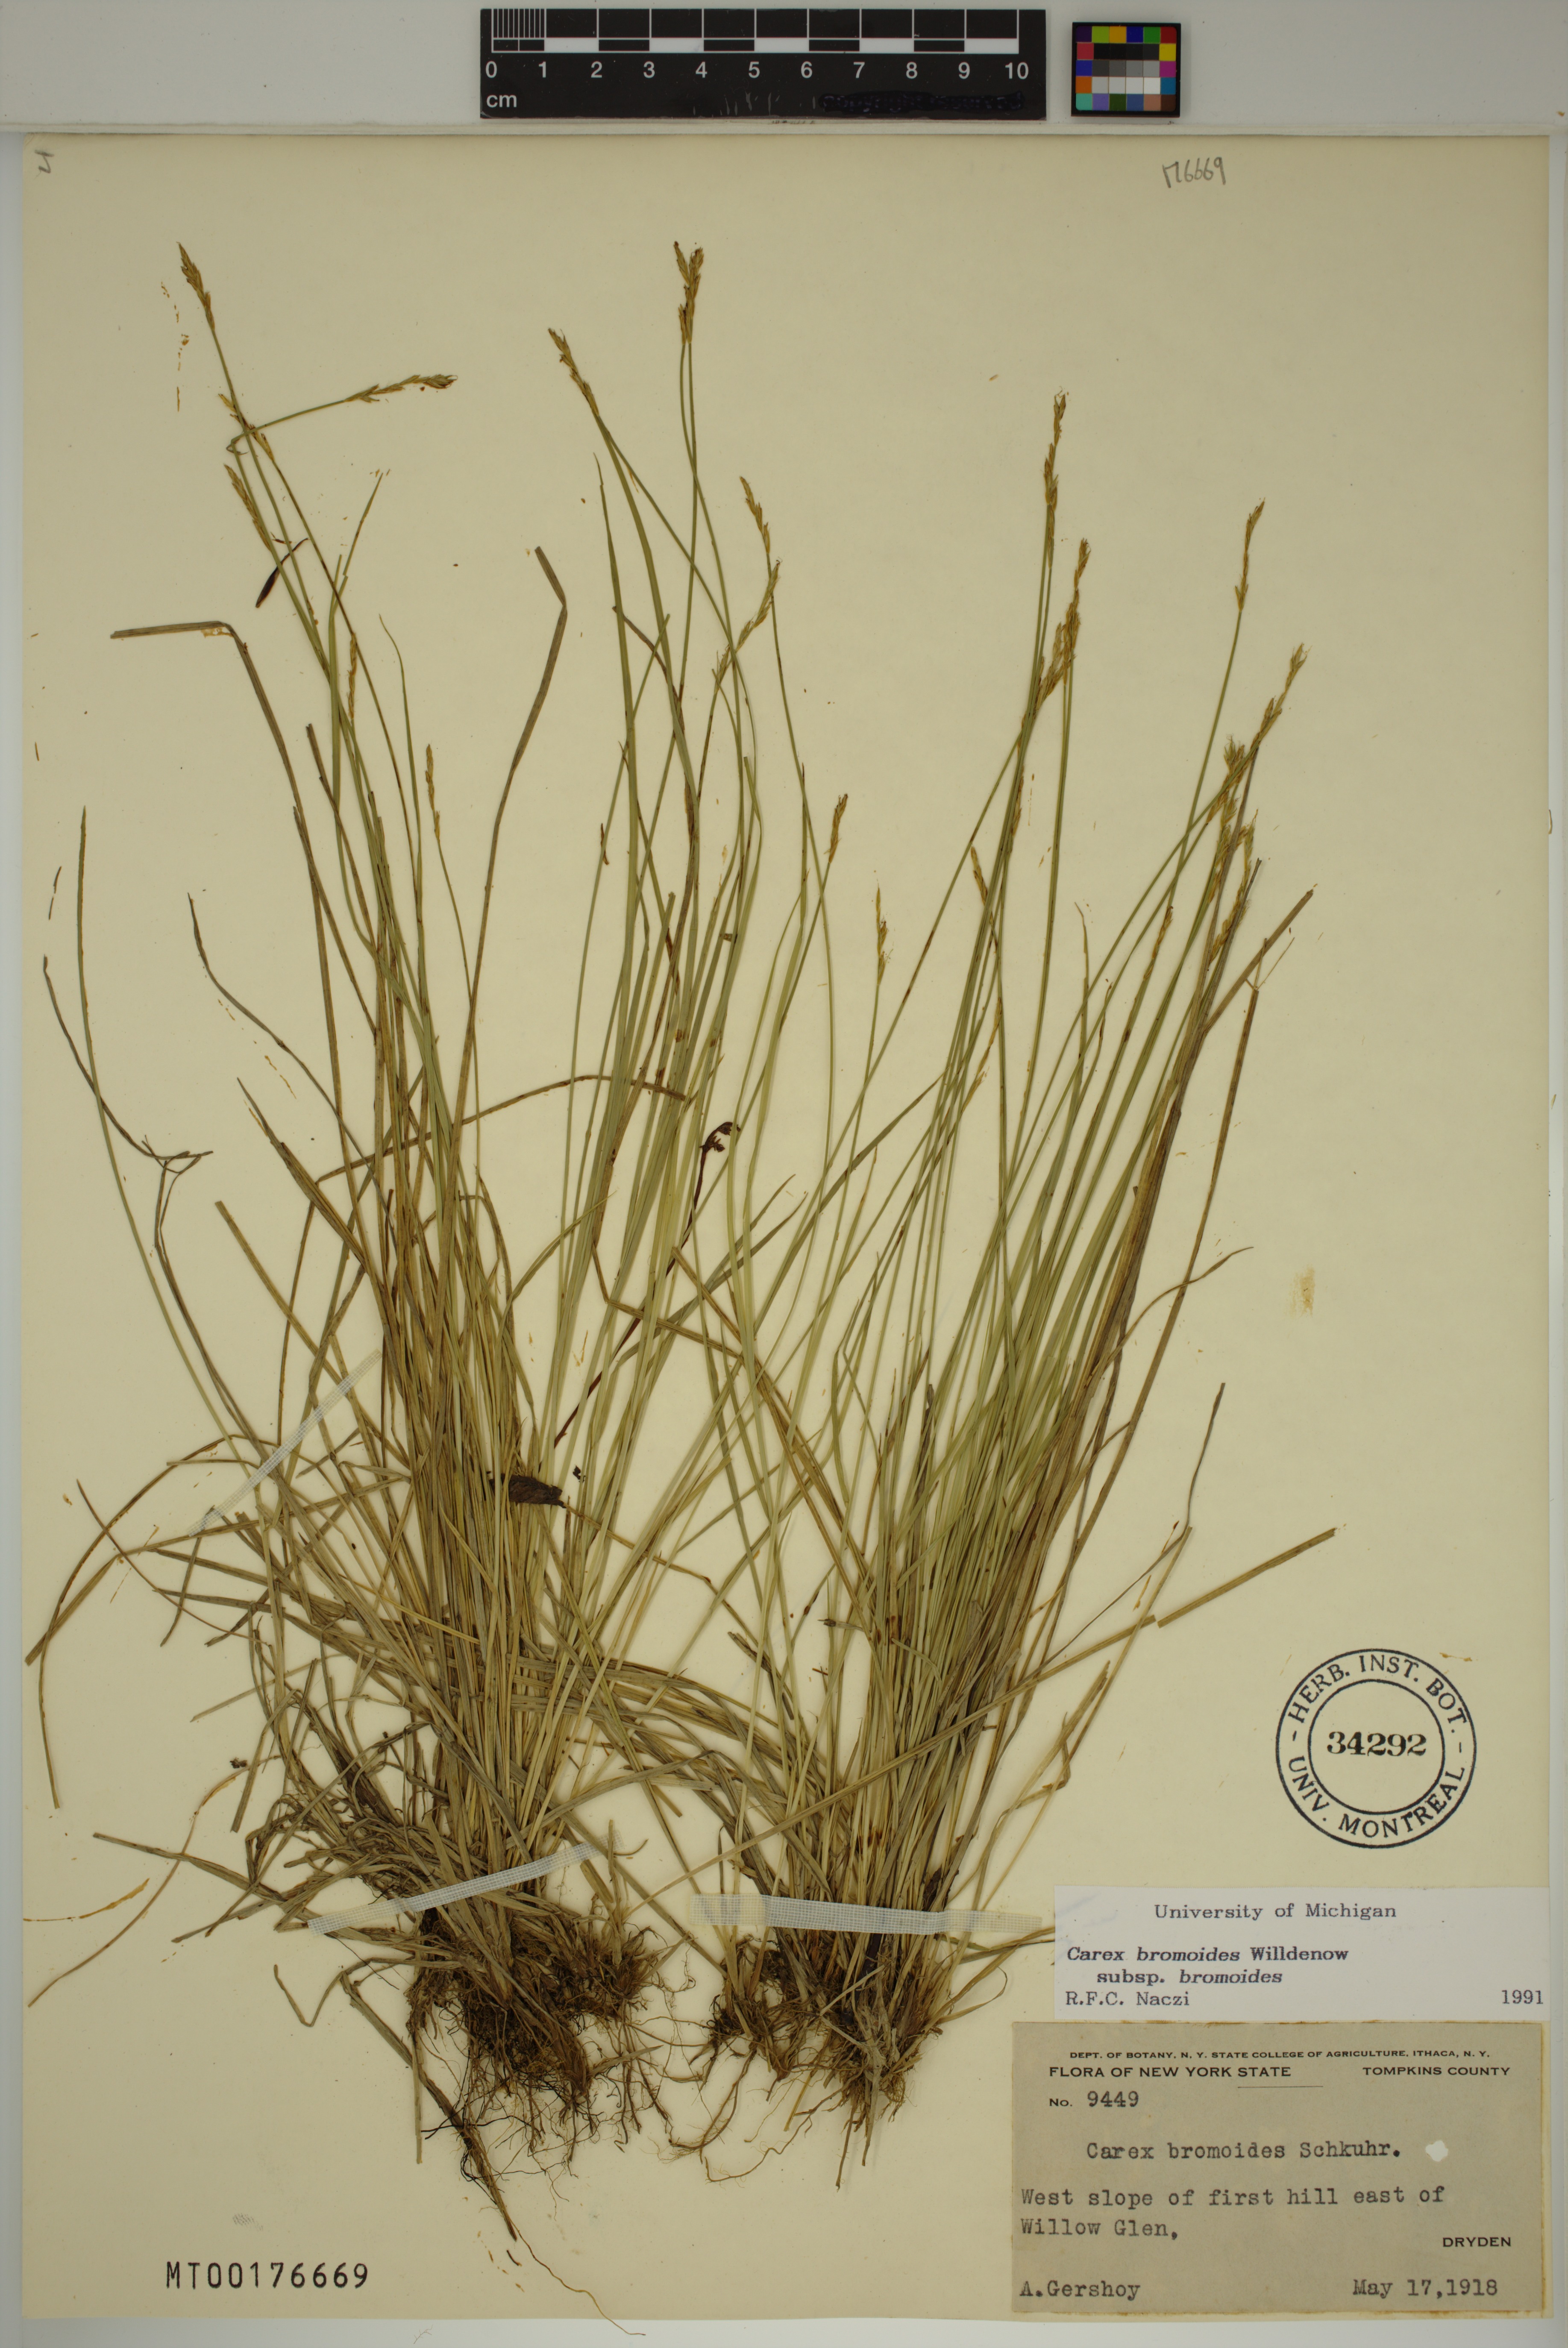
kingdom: Plantae
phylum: Tracheophyta
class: Liliopsida
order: Poales
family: Cyperaceae
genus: Carex
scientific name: Carex bromoides
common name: Brome hummock sedge
